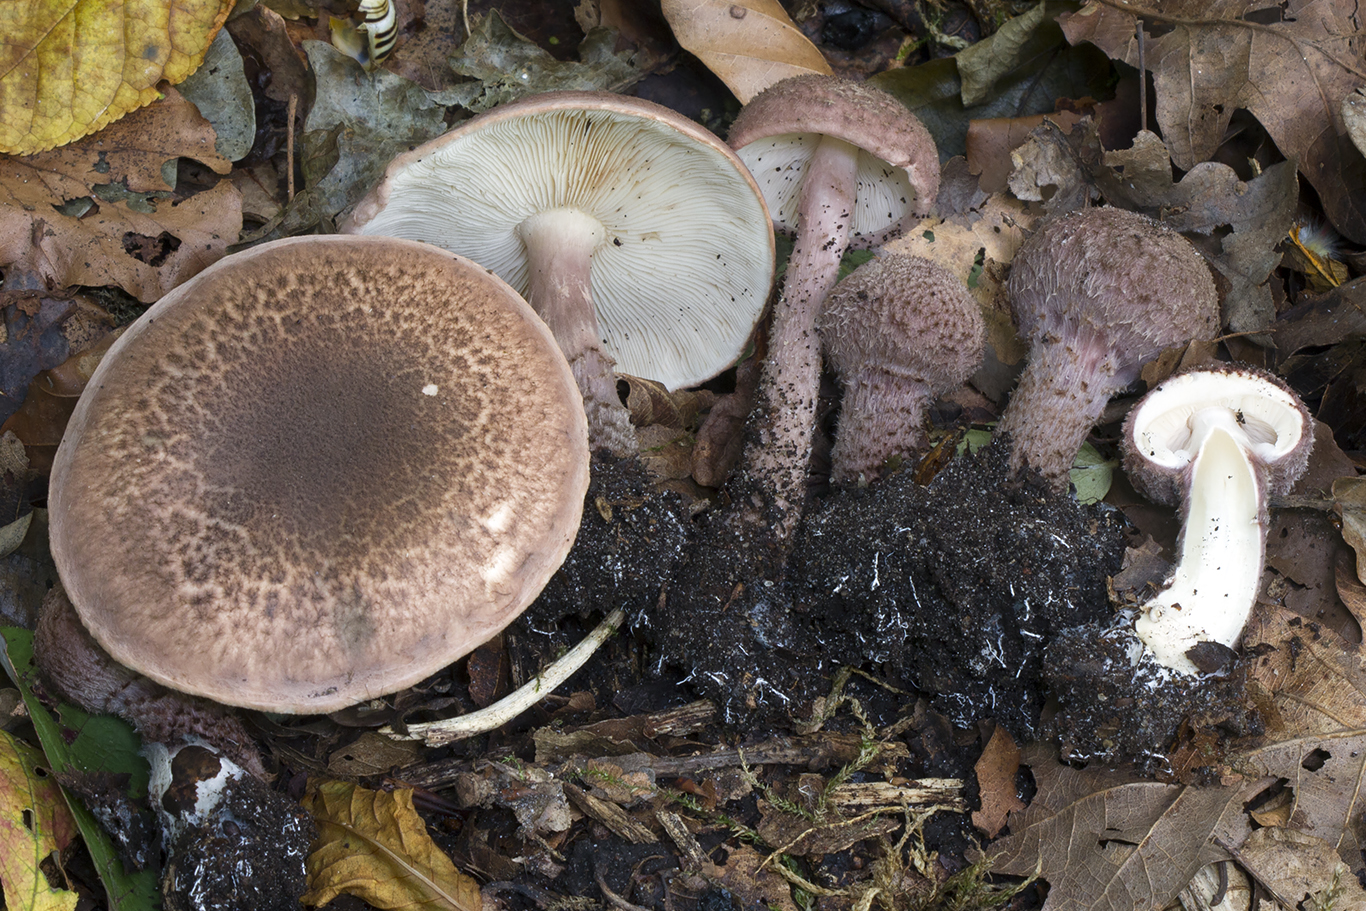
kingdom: Fungi
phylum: Basidiomycota
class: Agaricomycetes
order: Agaricales
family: Agaricaceae
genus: Lepiota
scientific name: Lepiota fuscovinacea
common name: vinrød parasolhat
